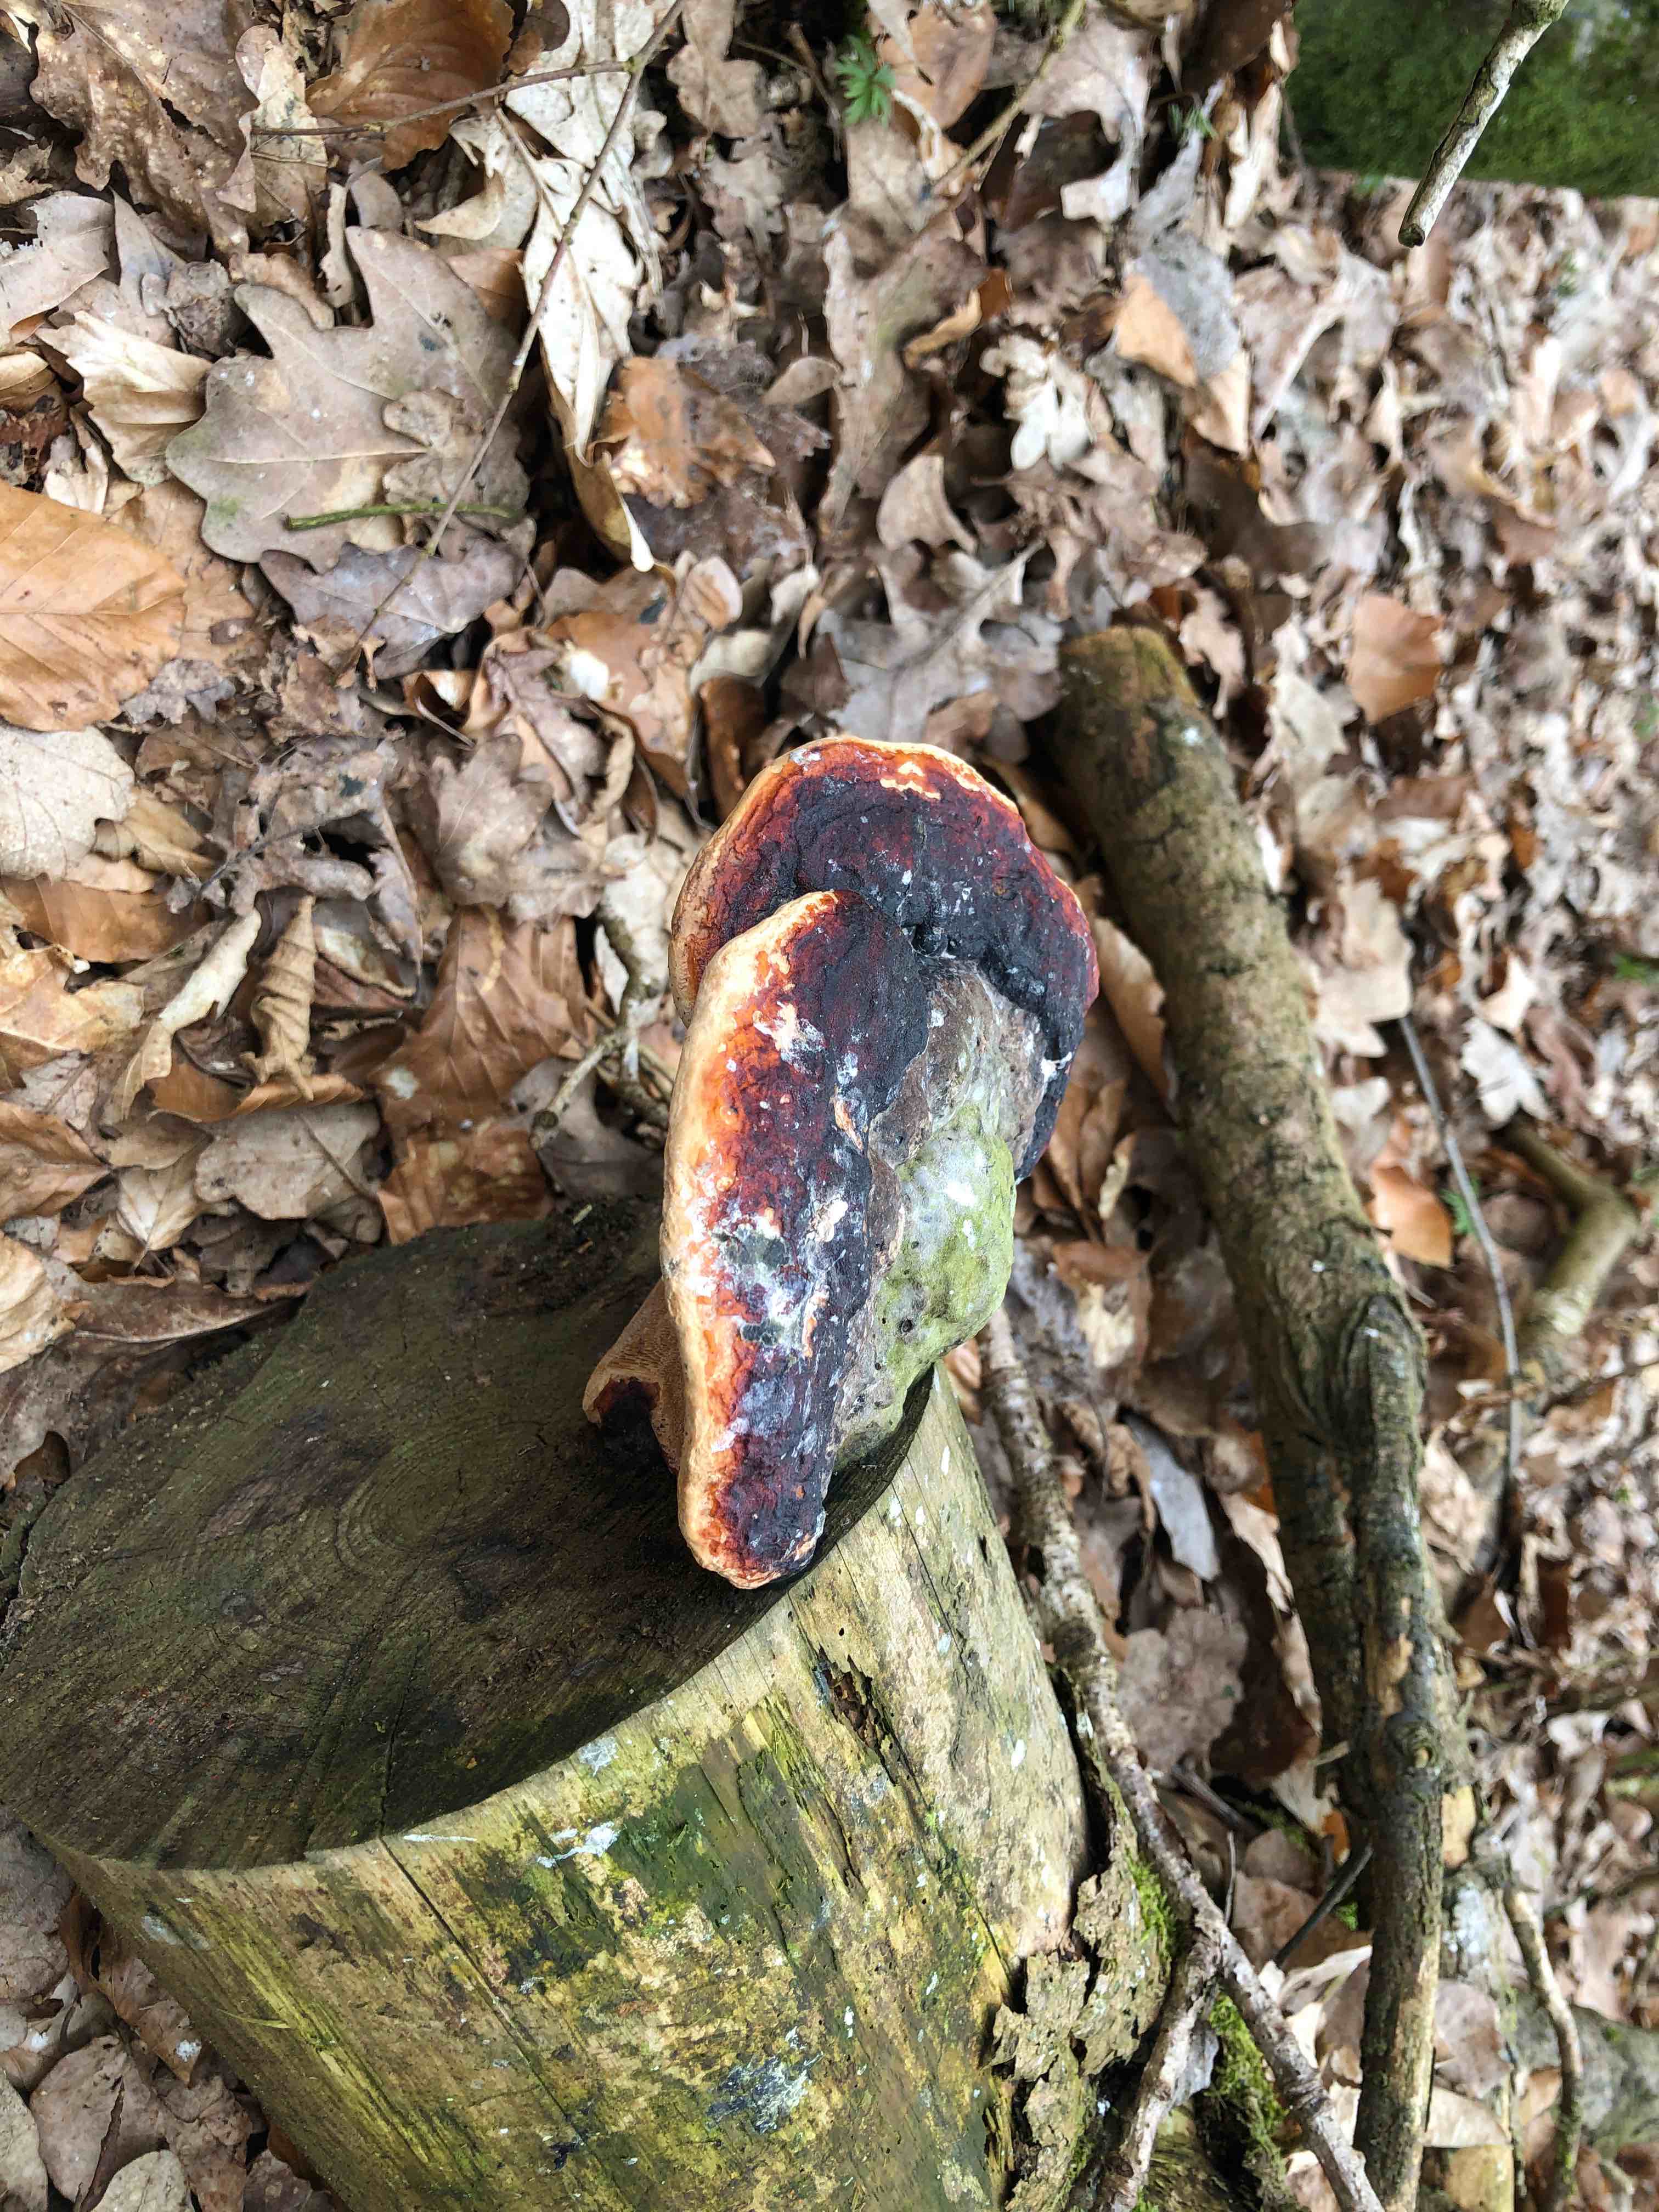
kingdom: Fungi
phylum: Basidiomycota
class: Agaricomycetes
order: Polyporales
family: Fomitopsidaceae
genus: Fomitopsis
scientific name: Fomitopsis pinicola
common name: randbæltet hovporesvamp
